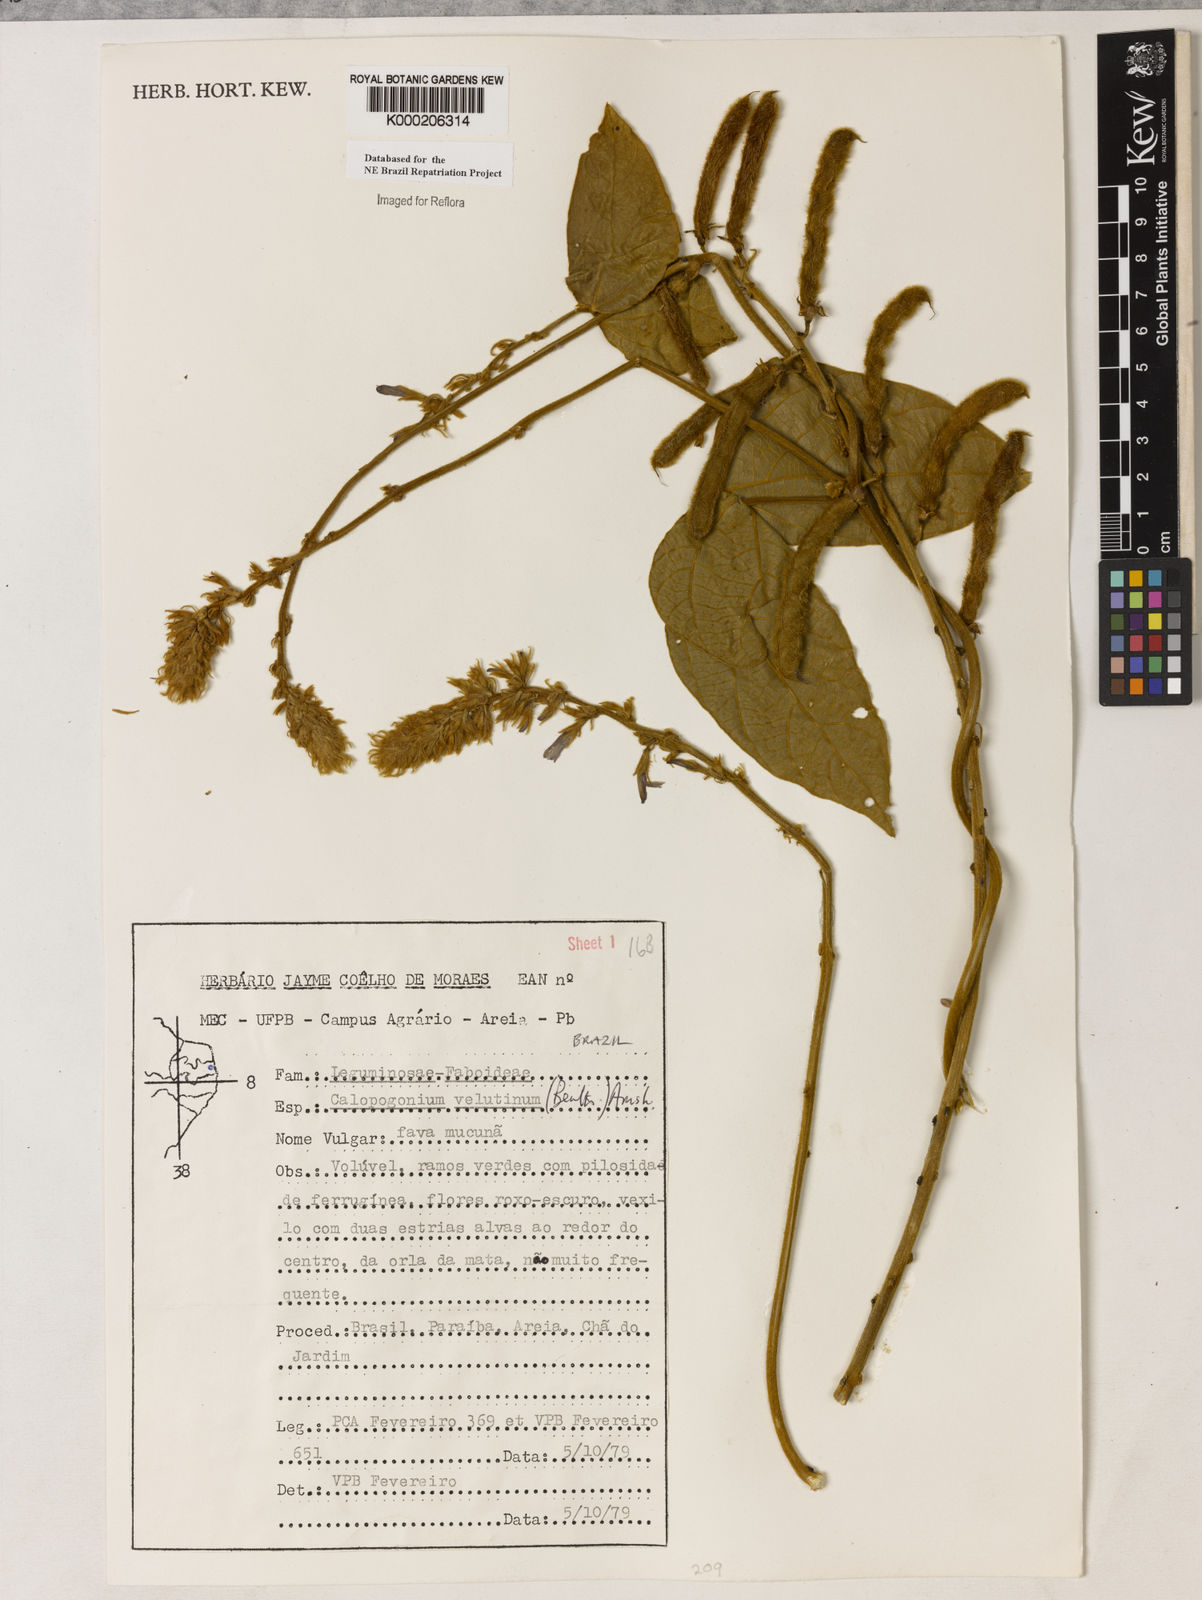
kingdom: Plantae
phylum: Tracheophyta
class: Magnoliopsida
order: Fabales
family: Fabaceae
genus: Calopogonium
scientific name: Calopogonium velutinum
